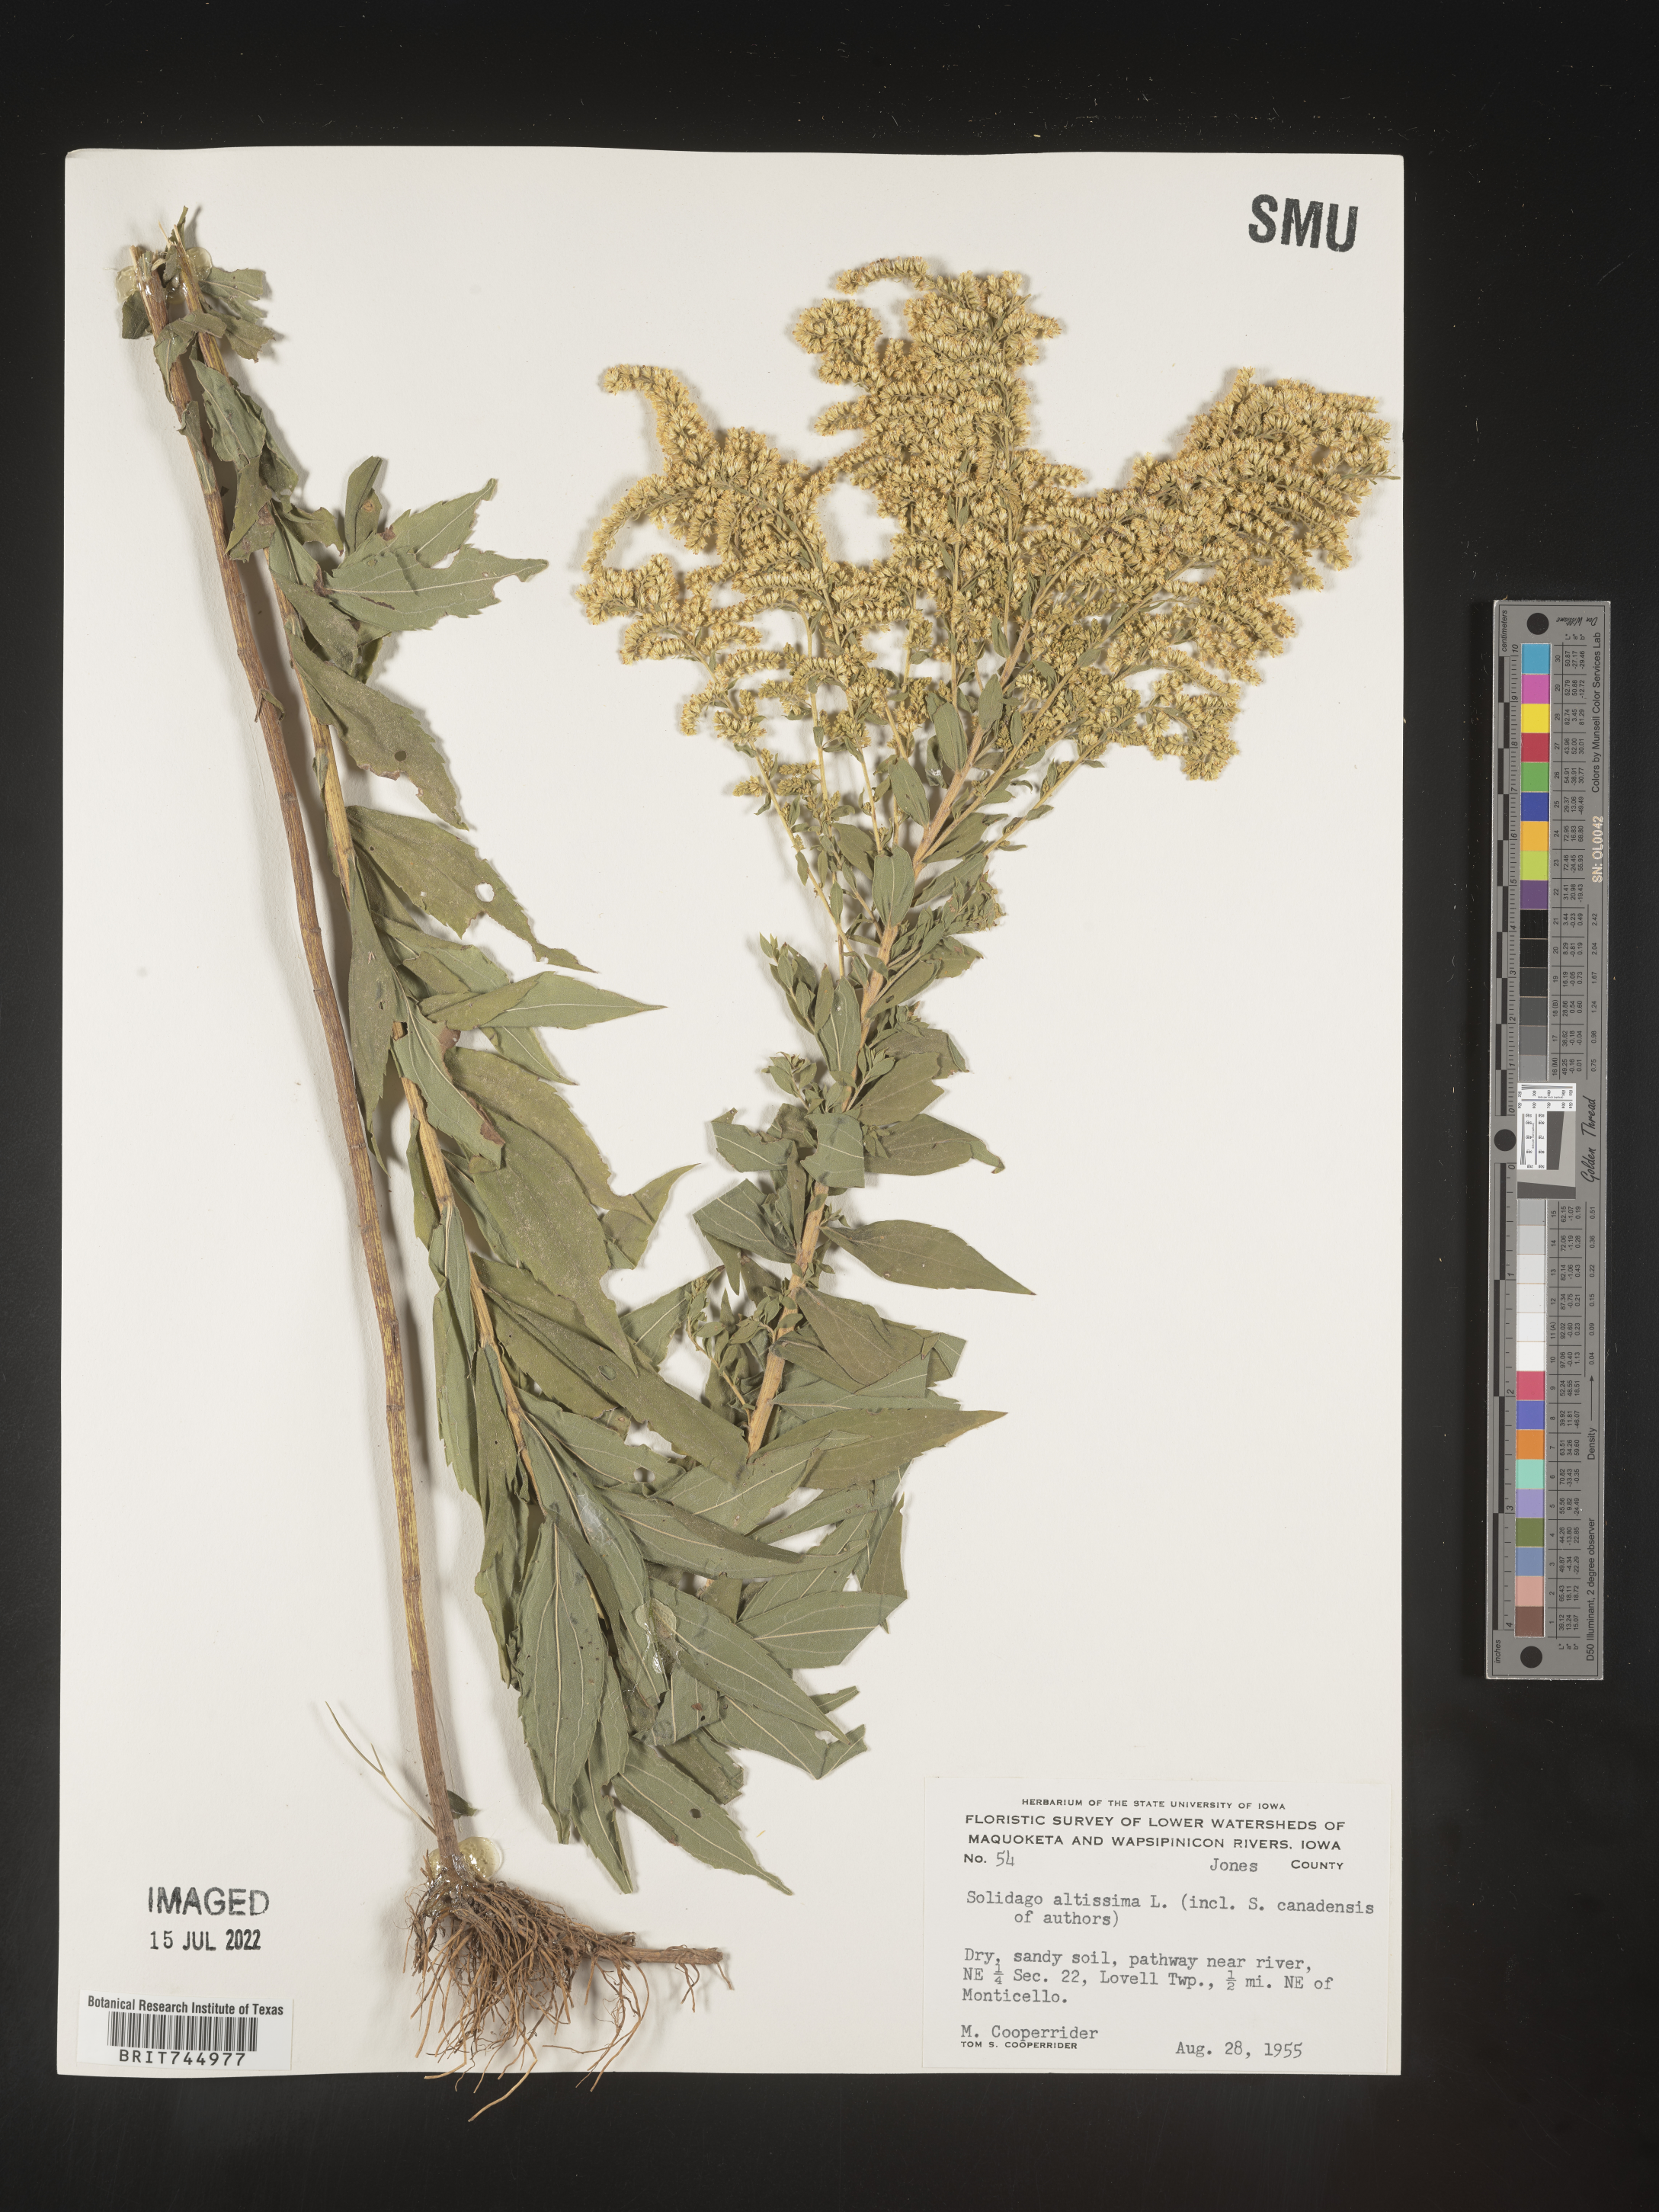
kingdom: Plantae
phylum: Tracheophyta
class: Magnoliopsida
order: Asterales
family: Asteraceae
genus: Solidago
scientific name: Solidago canadensis
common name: Canada goldenrod
